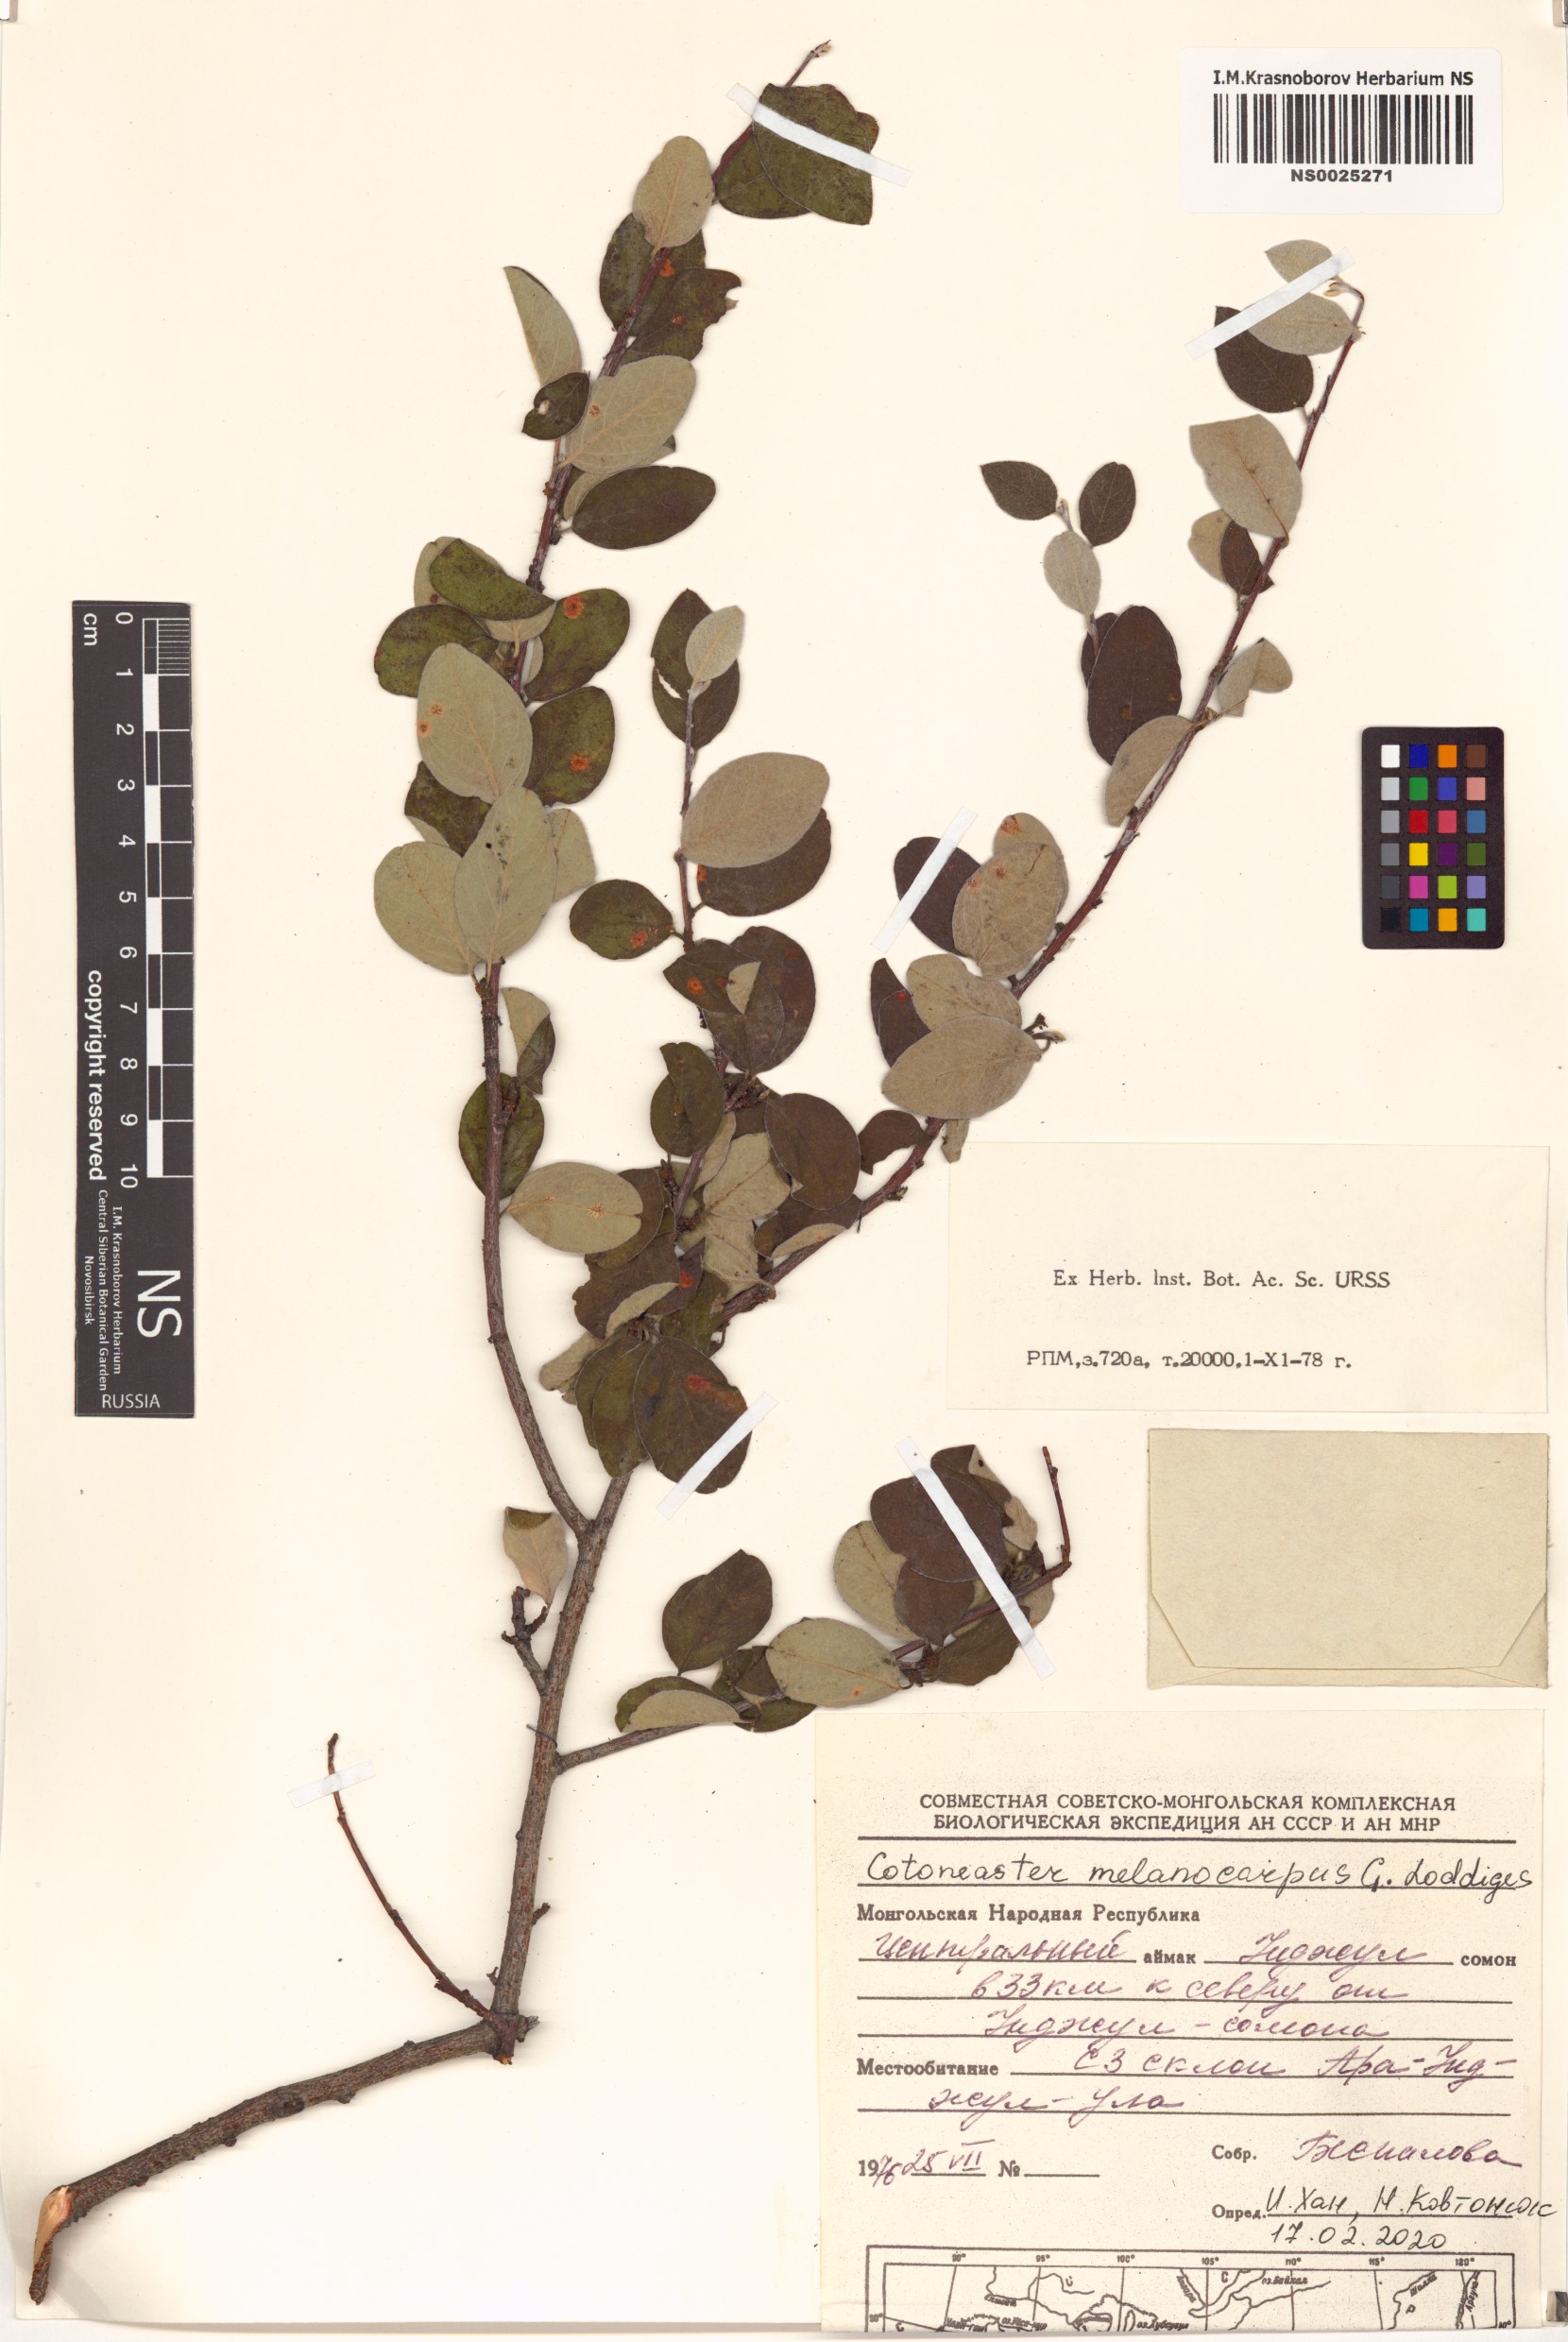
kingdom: Plantae
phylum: Tracheophyta
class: Magnoliopsida
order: Rosales
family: Rosaceae
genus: Cotoneaster
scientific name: Cotoneaster melanocarpus
